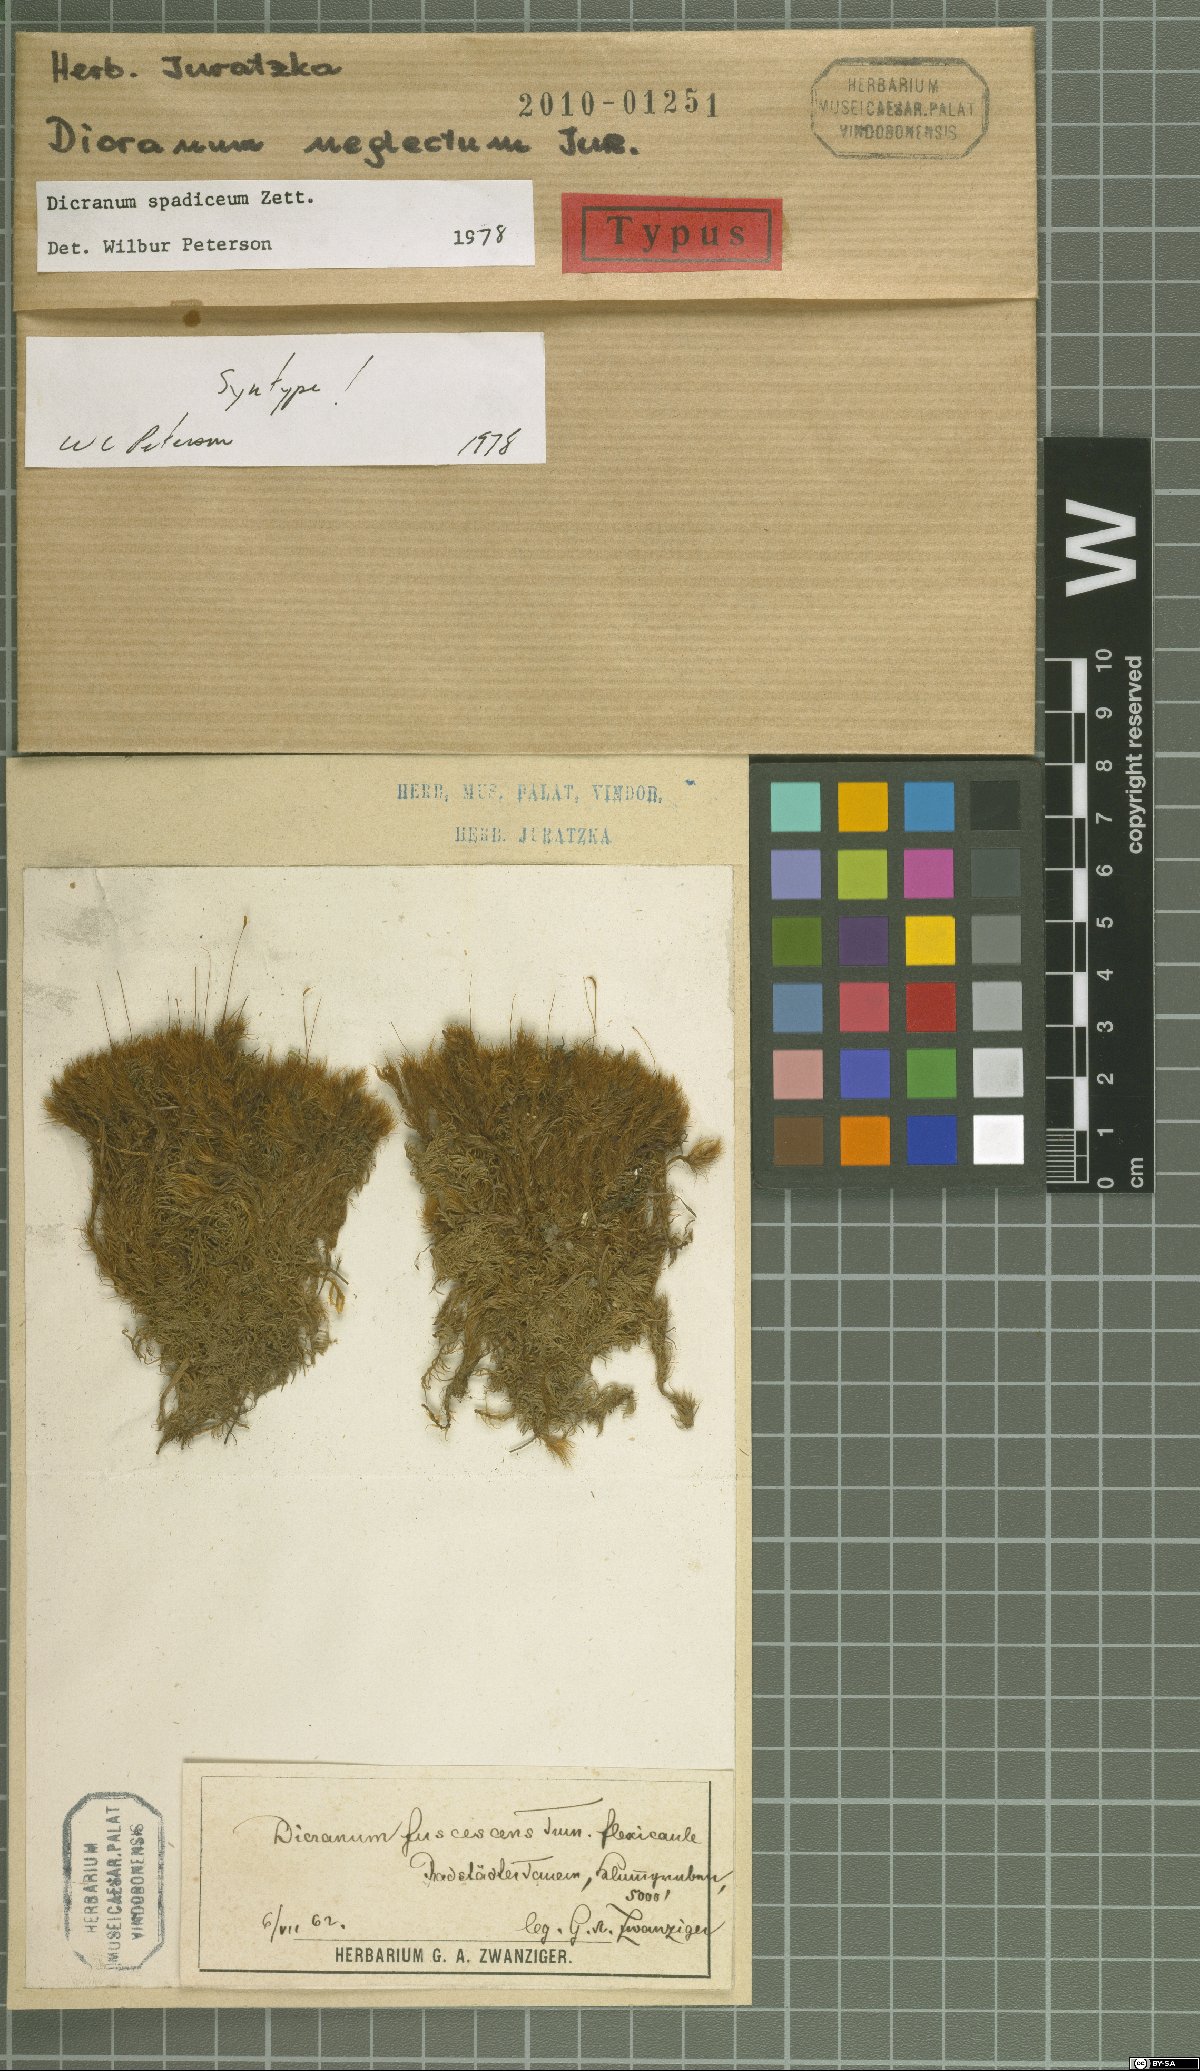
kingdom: Plantae
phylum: Bryophyta
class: Bryopsida
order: Dicranales
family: Dicranaceae
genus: Dicranum
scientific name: Dicranum spadiceum
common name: Confusing broom moss
